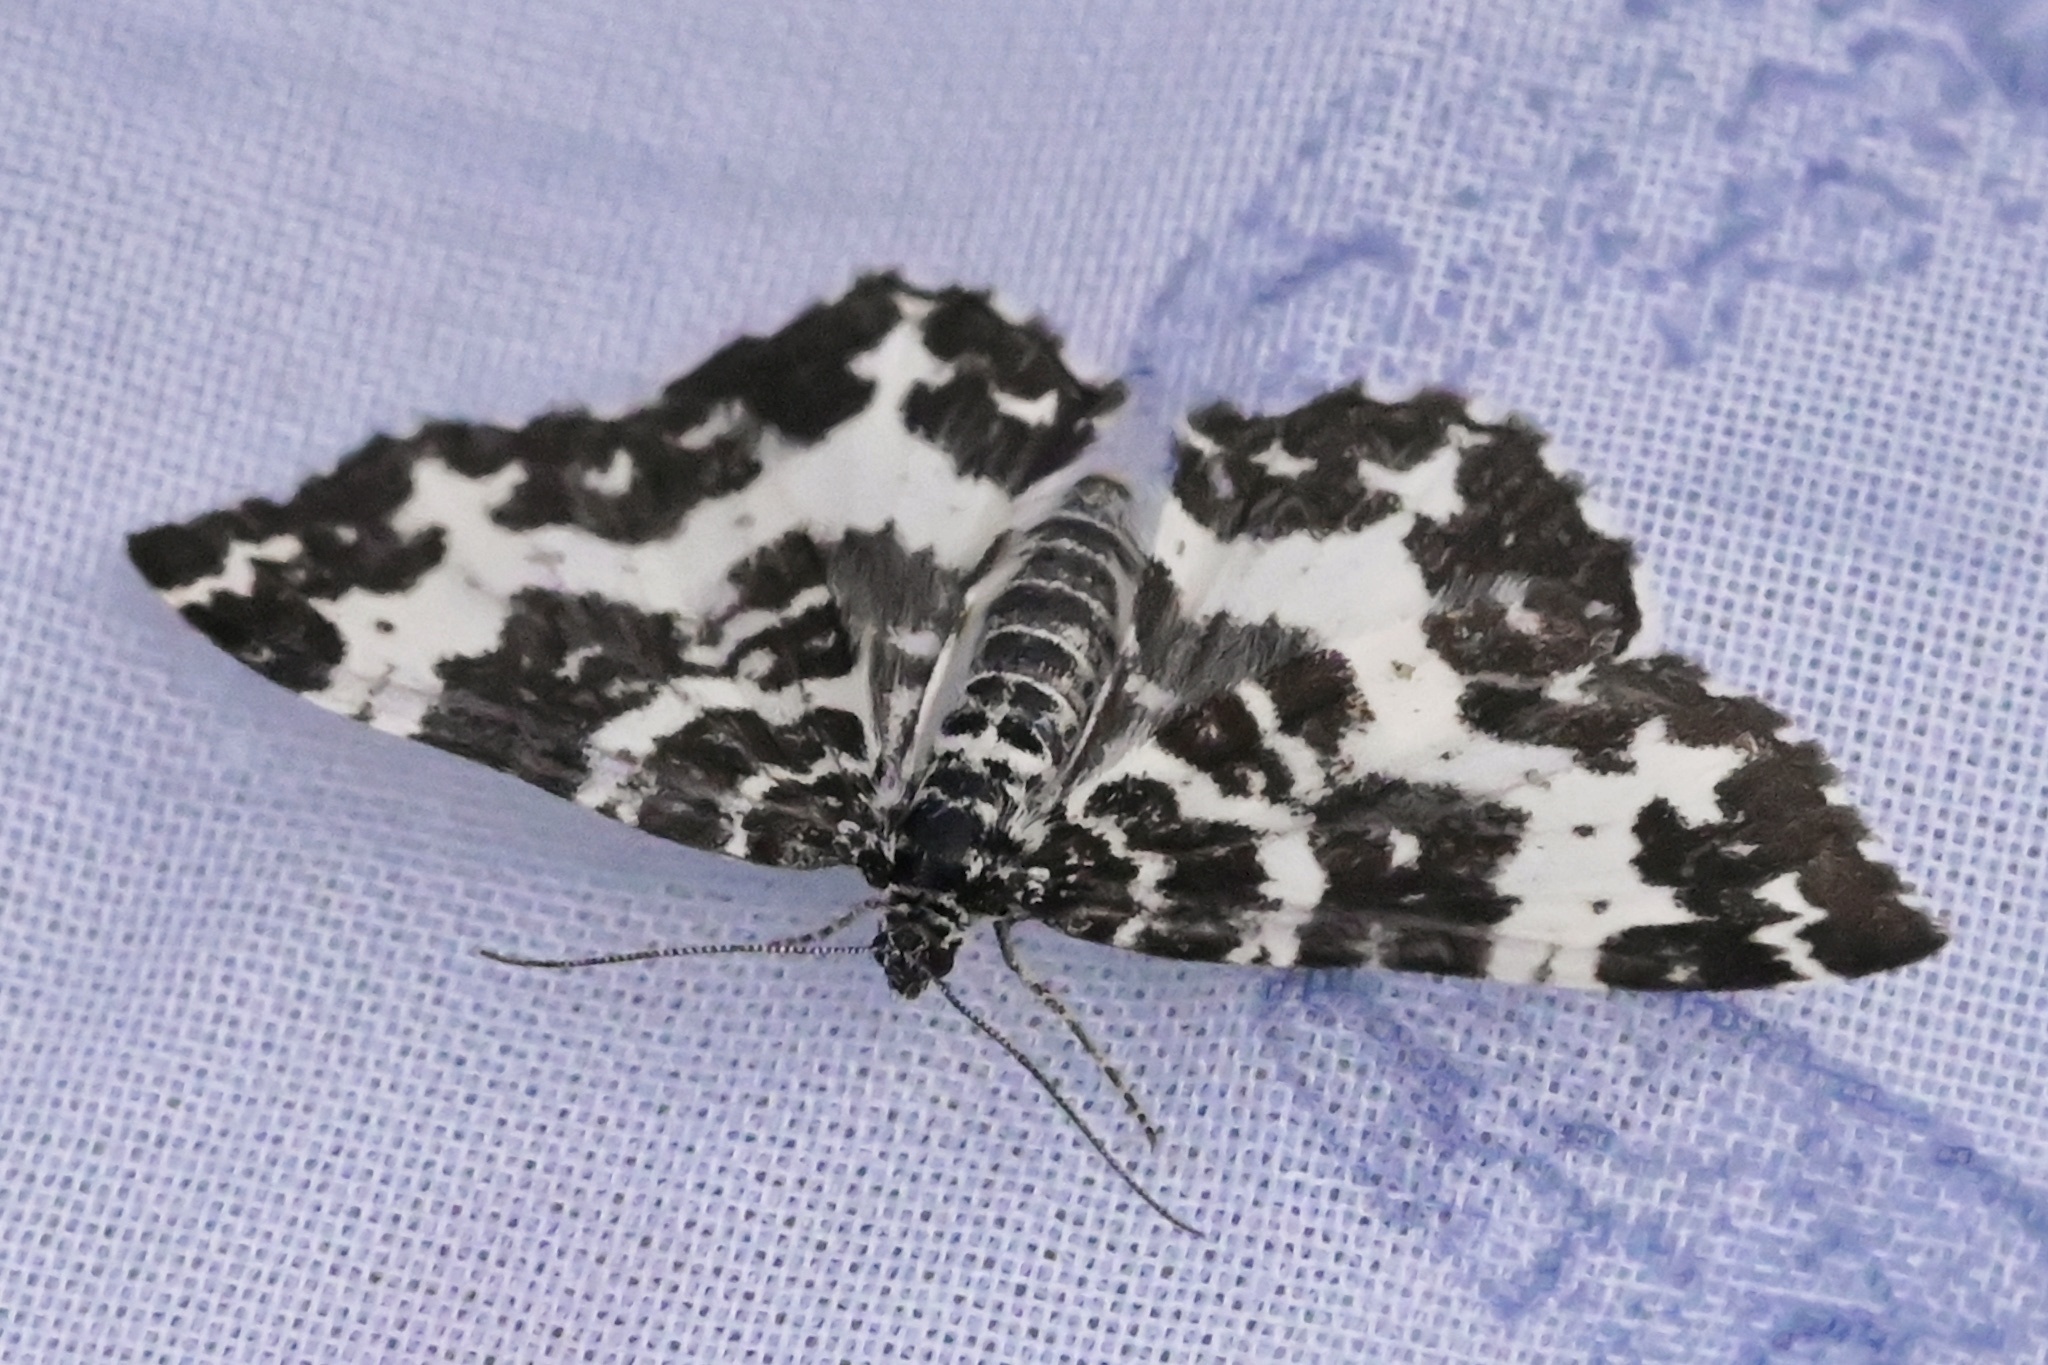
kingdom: Animalia
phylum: Arthropoda
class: Insecta
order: Lepidoptera
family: Geometridae
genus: Rheumaptera
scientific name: Rheumaptera hastata
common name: Argent & sable
